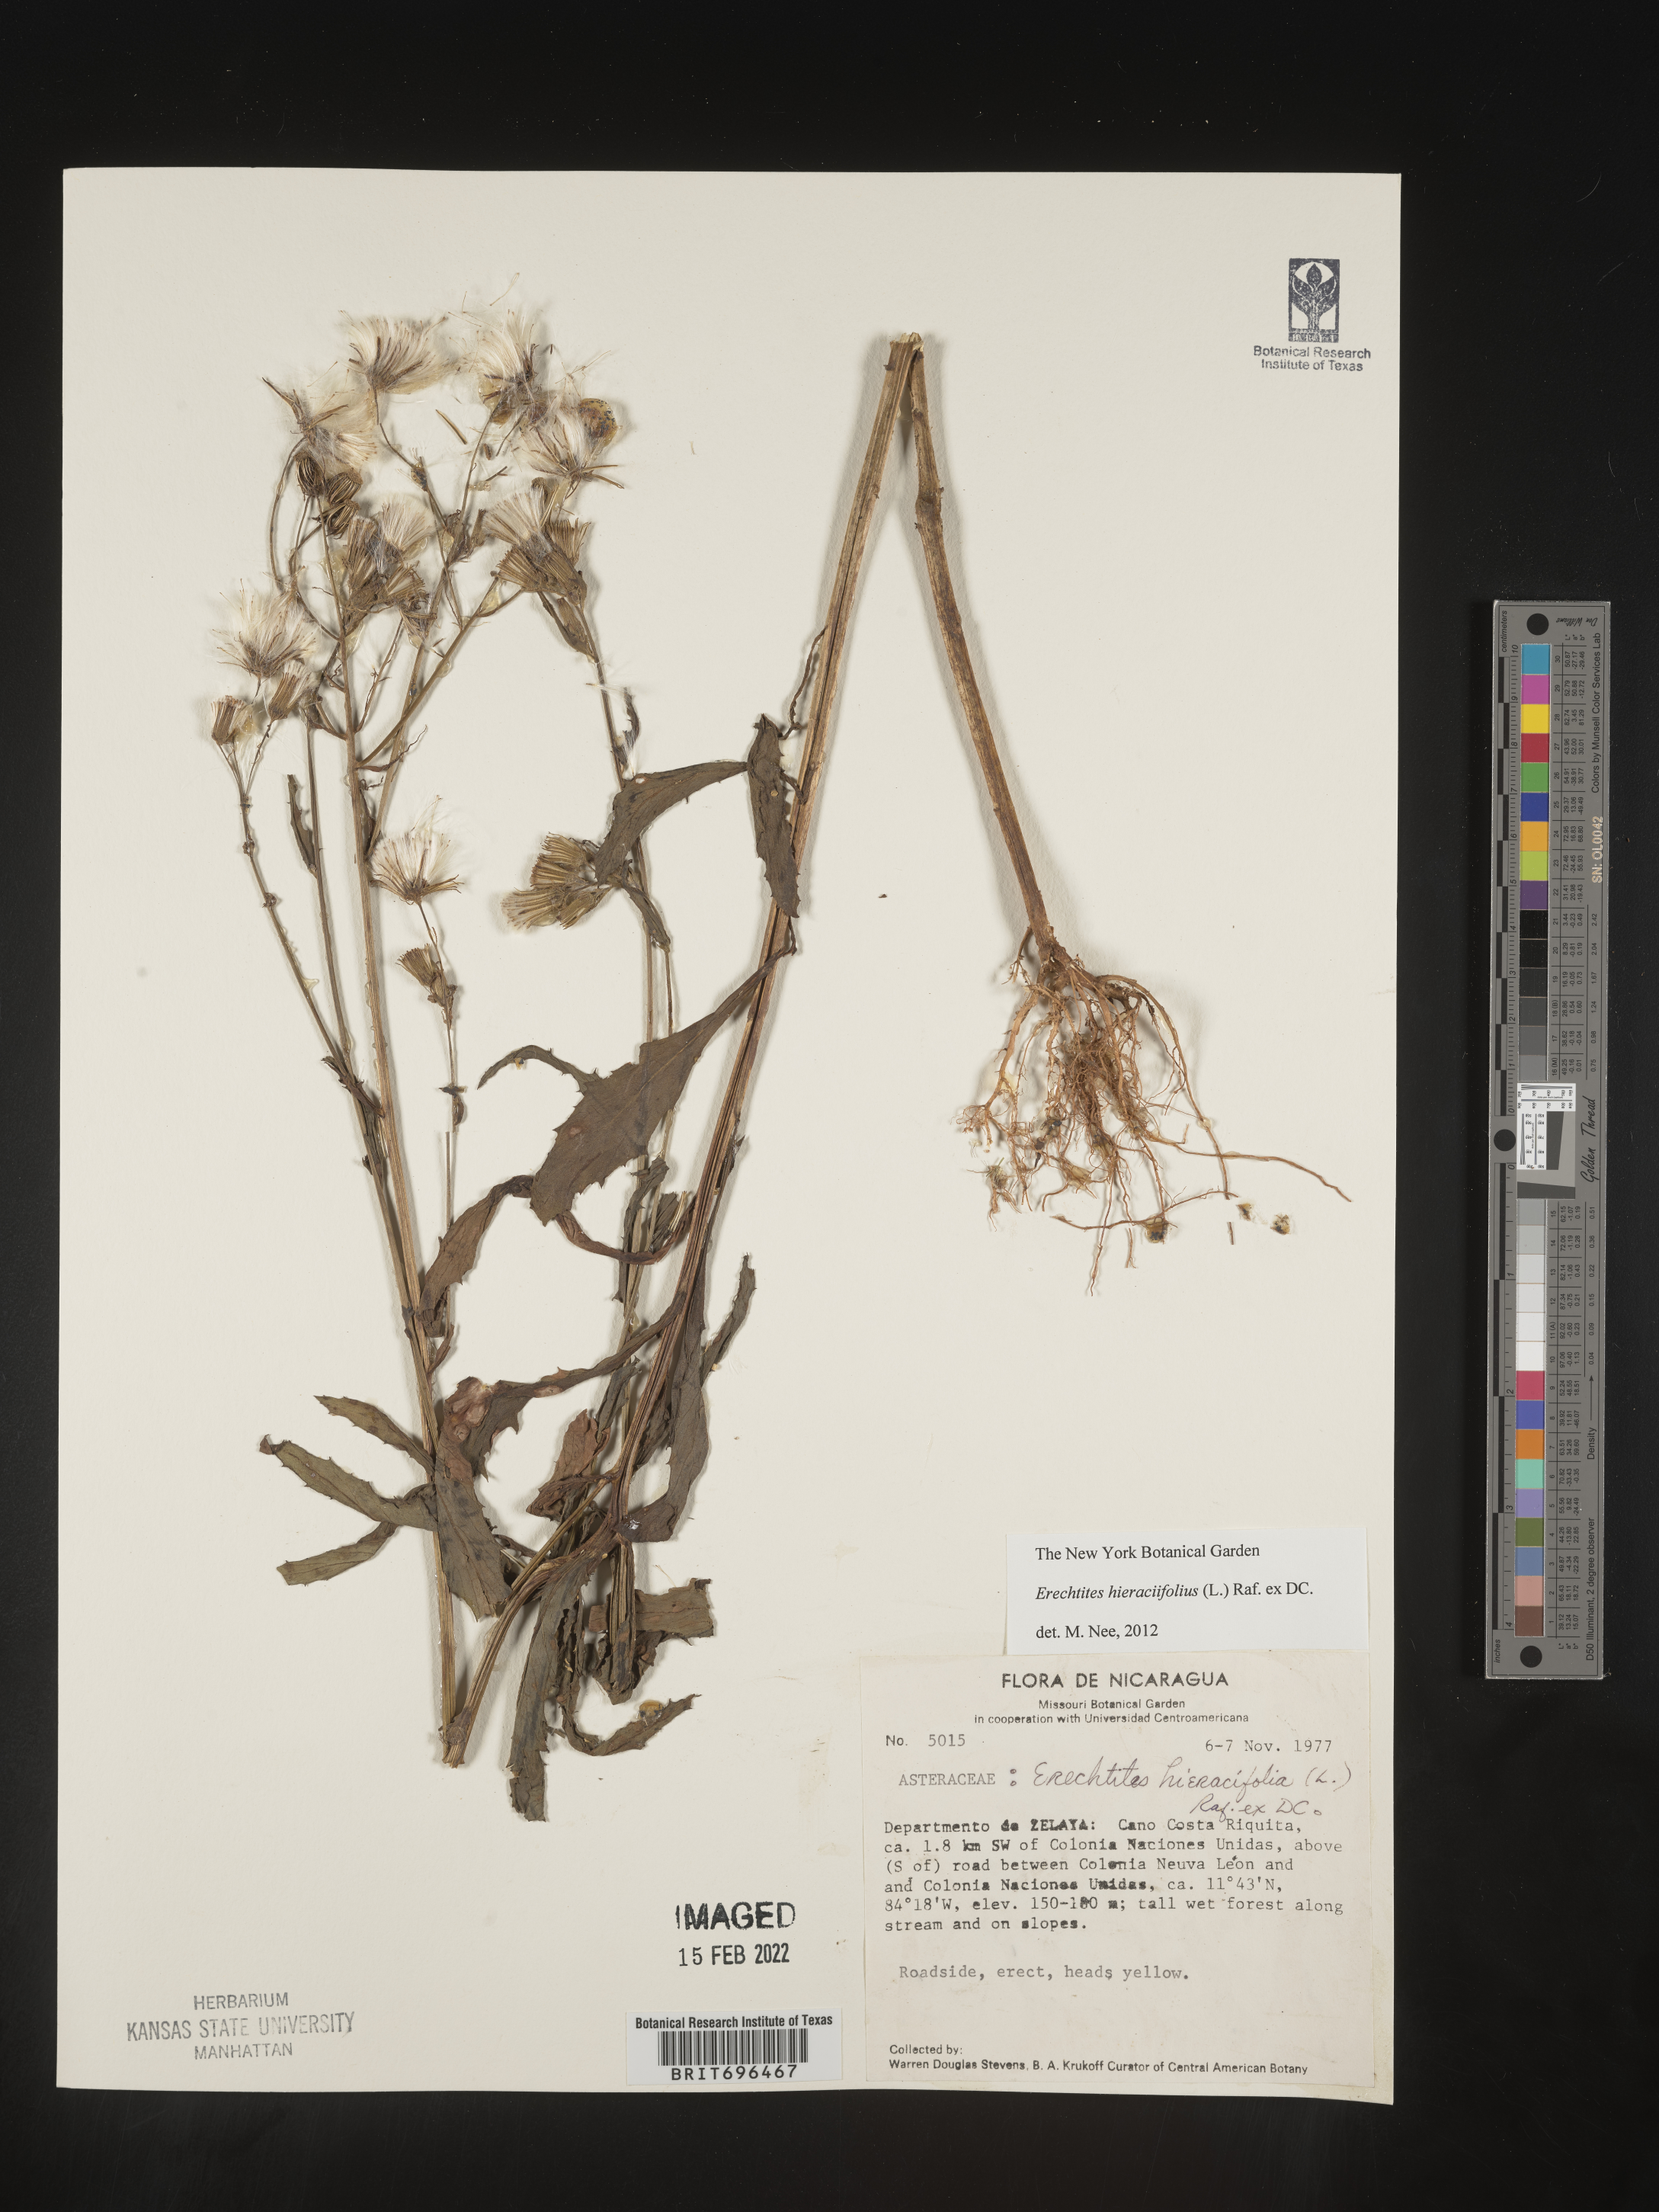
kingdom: Plantae
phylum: Tracheophyta
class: Magnoliopsida
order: Asterales
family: Asteraceae
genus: Erechtites
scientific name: Erechtites
